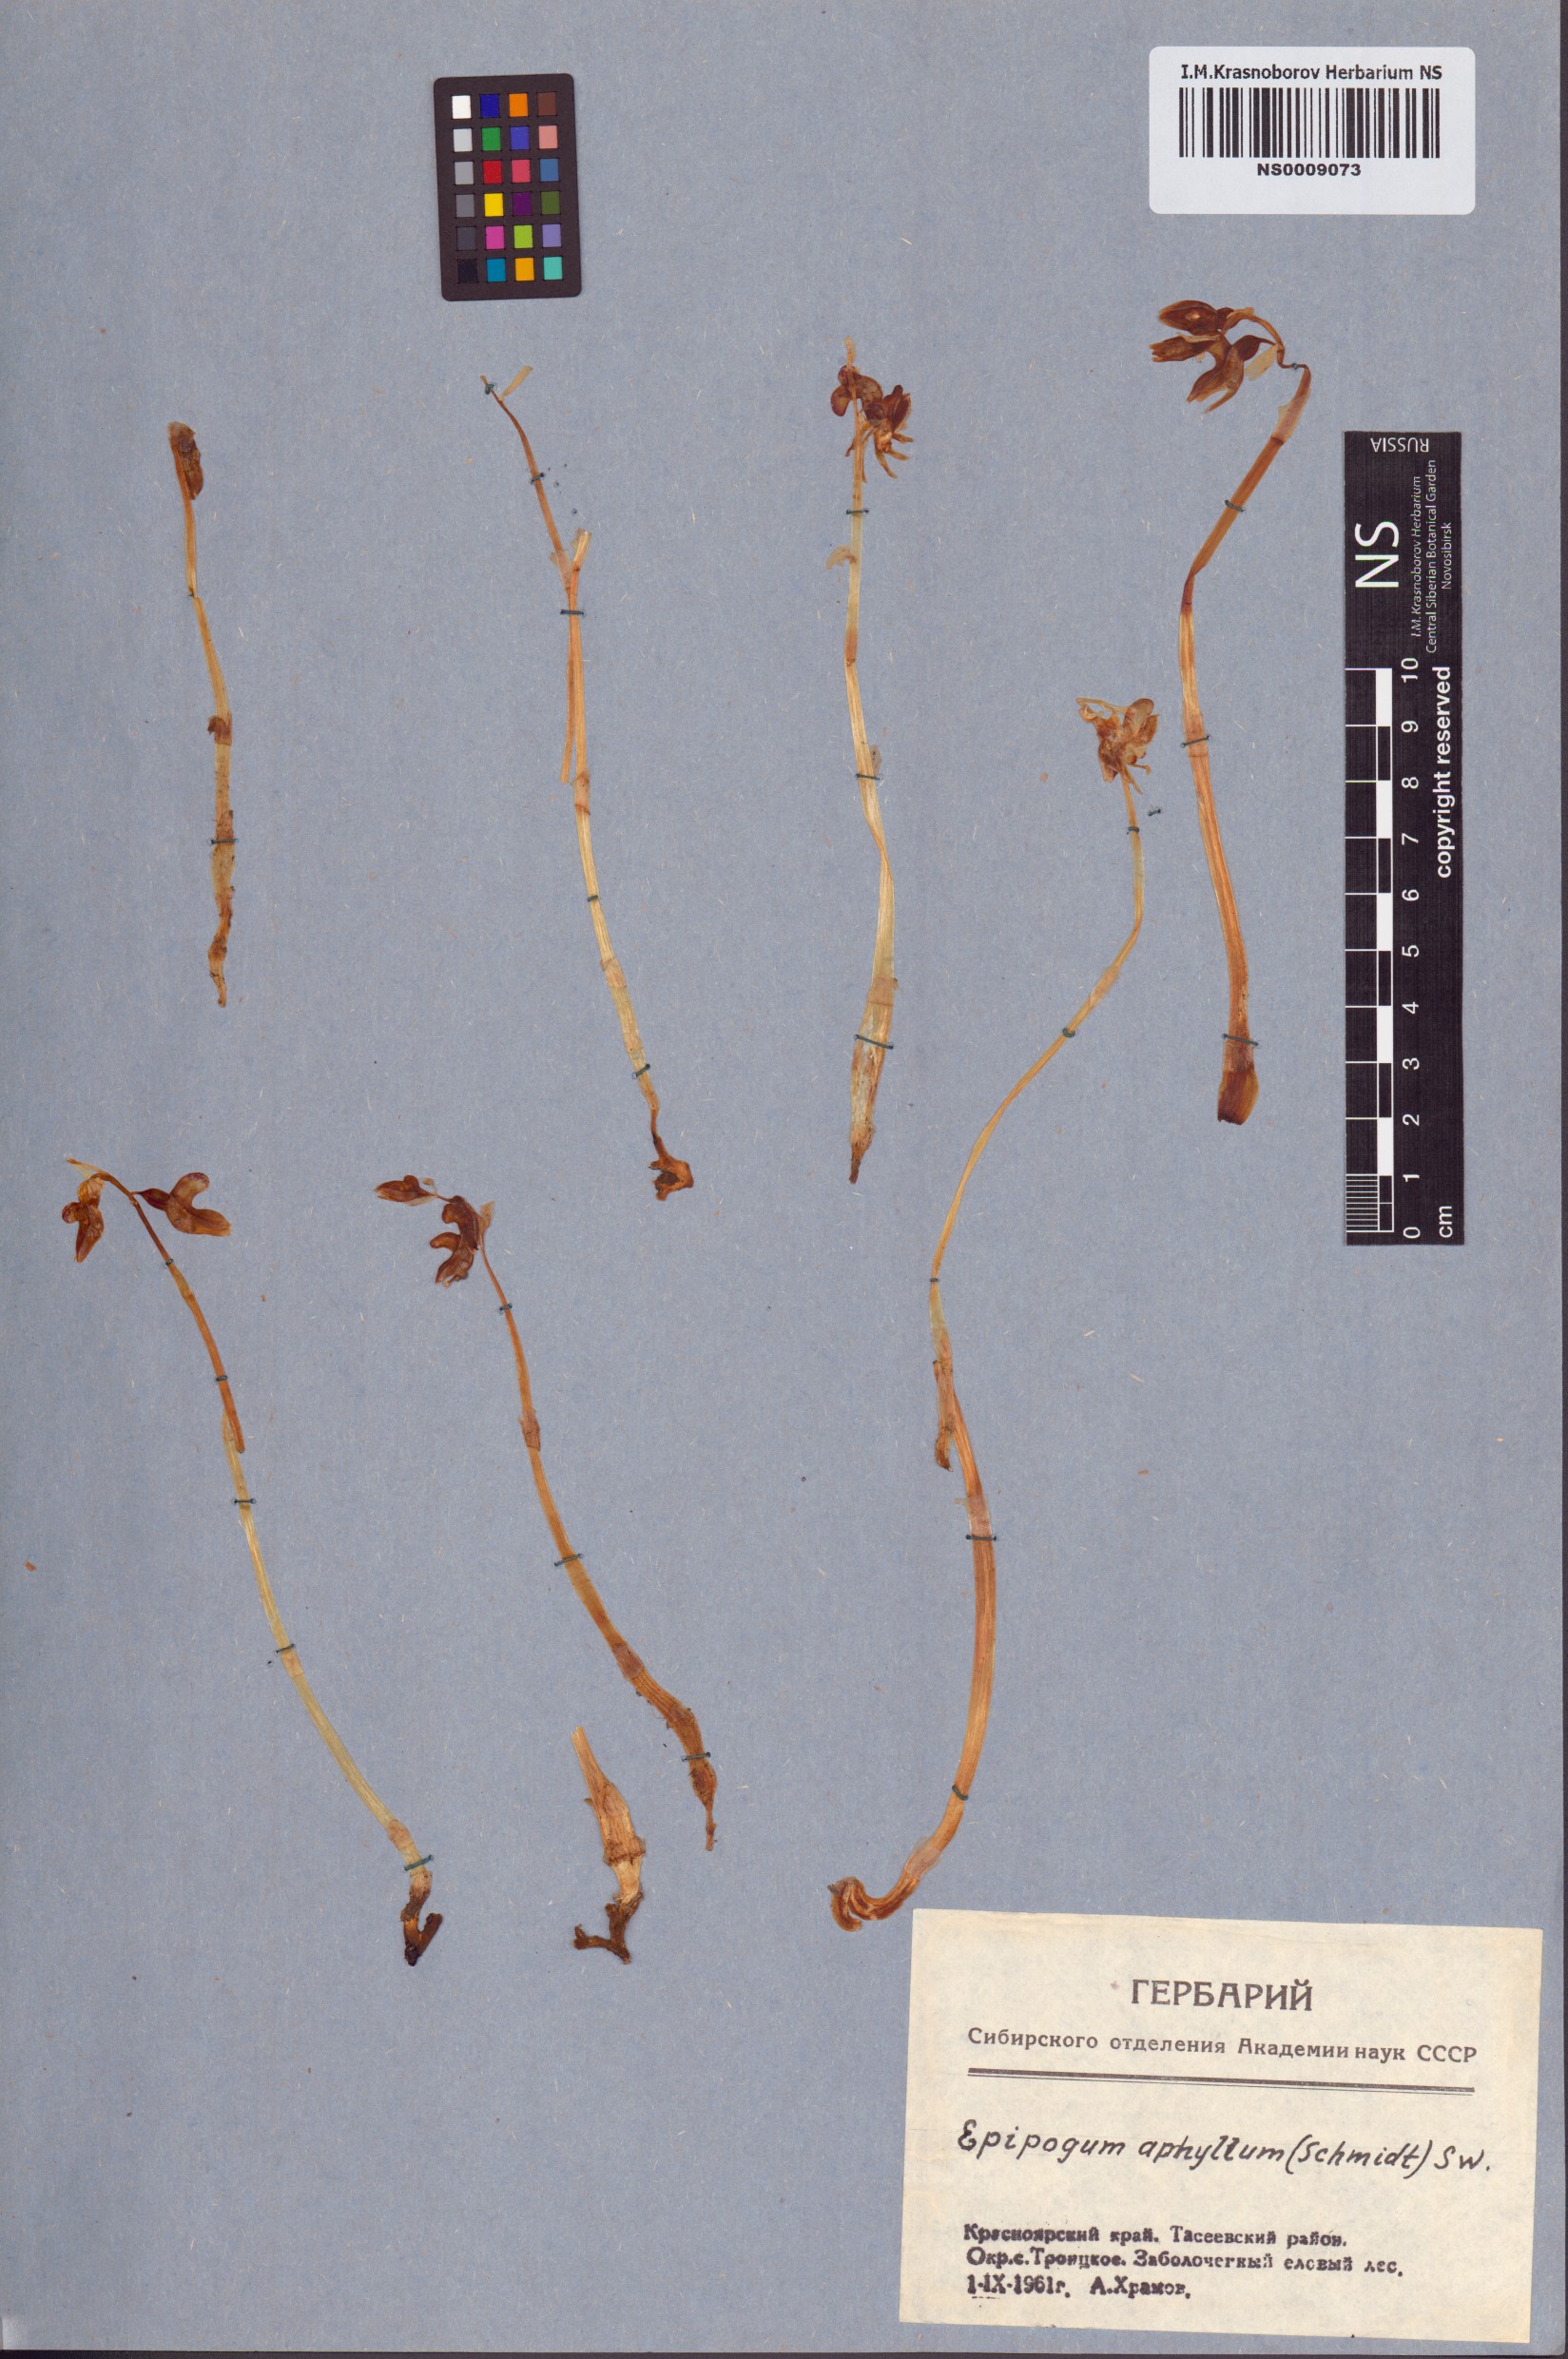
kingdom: Plantae
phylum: Tracheophyta
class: Liliopsida
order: Asparagales
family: Orchidaceae
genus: Epipogium
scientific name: Epipogium aphyllum
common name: Ghost orchid
